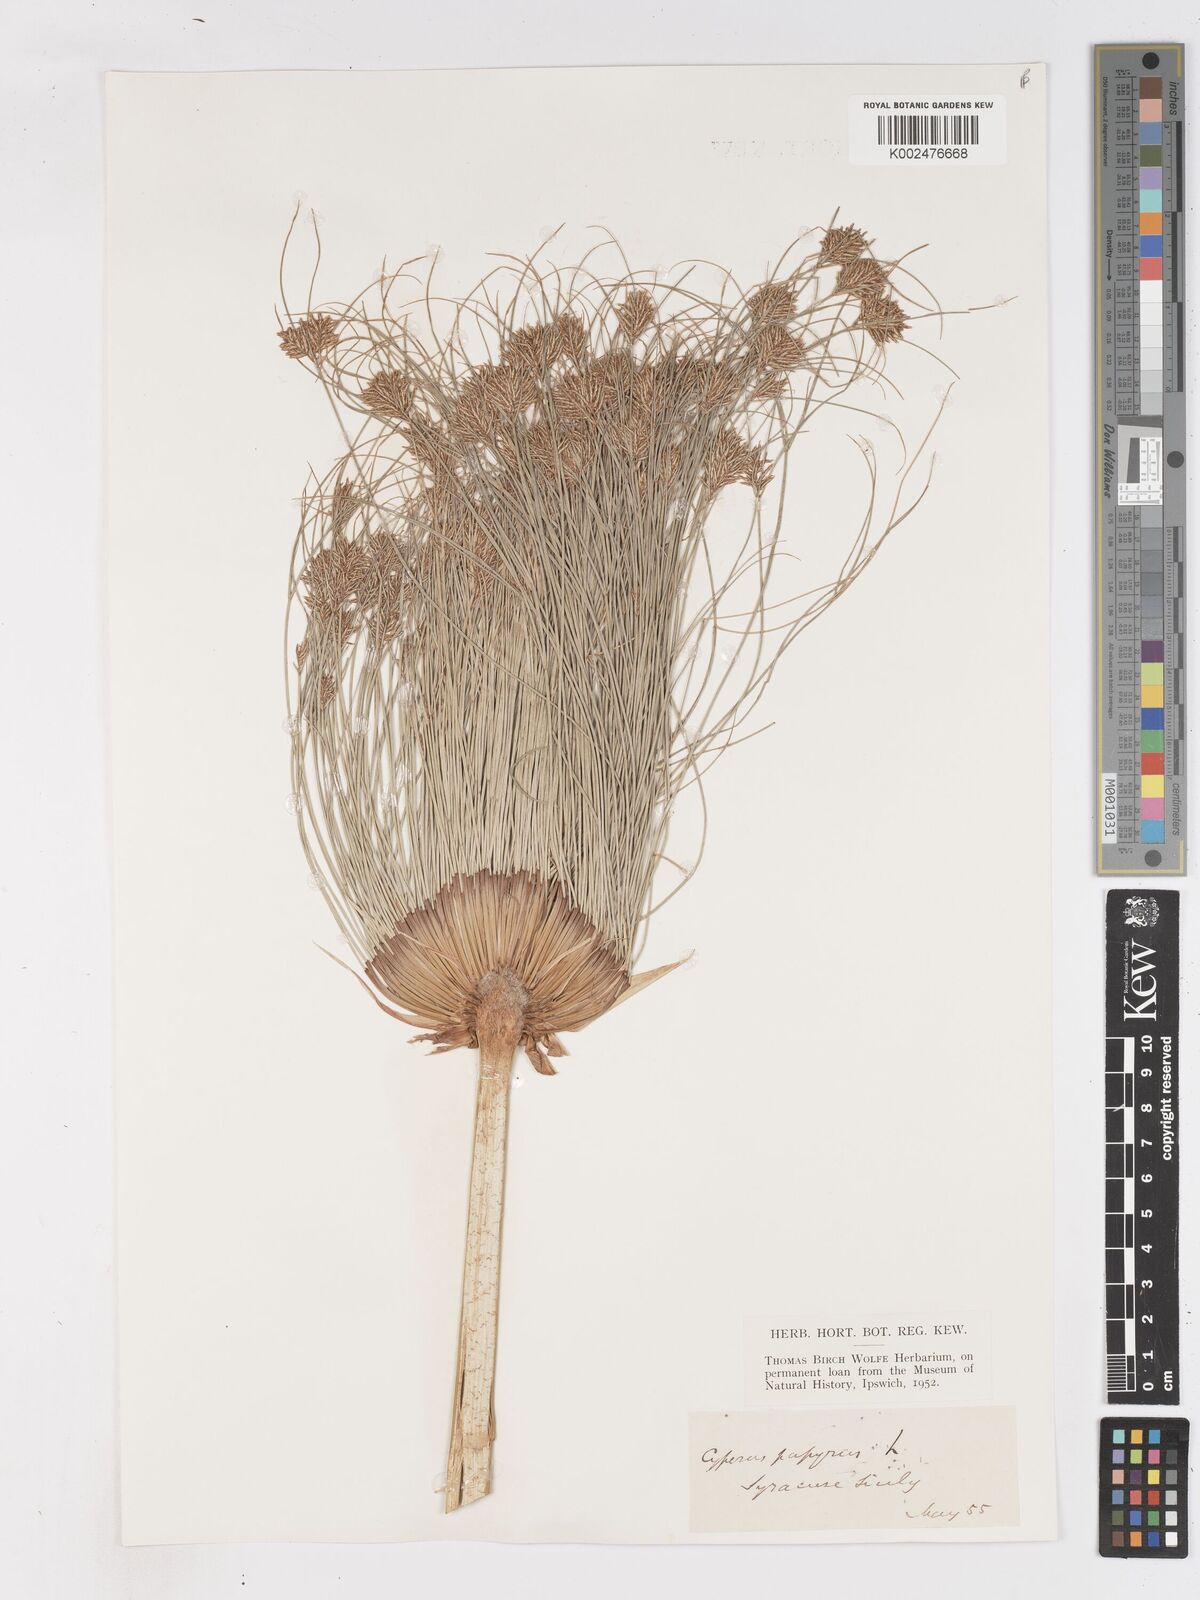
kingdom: Plantae
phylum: Tracheophyta
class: Liliopsida
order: Poales
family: Cyperaceae
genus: Cyperus
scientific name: Cyperus papyrus
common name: Papyrus
